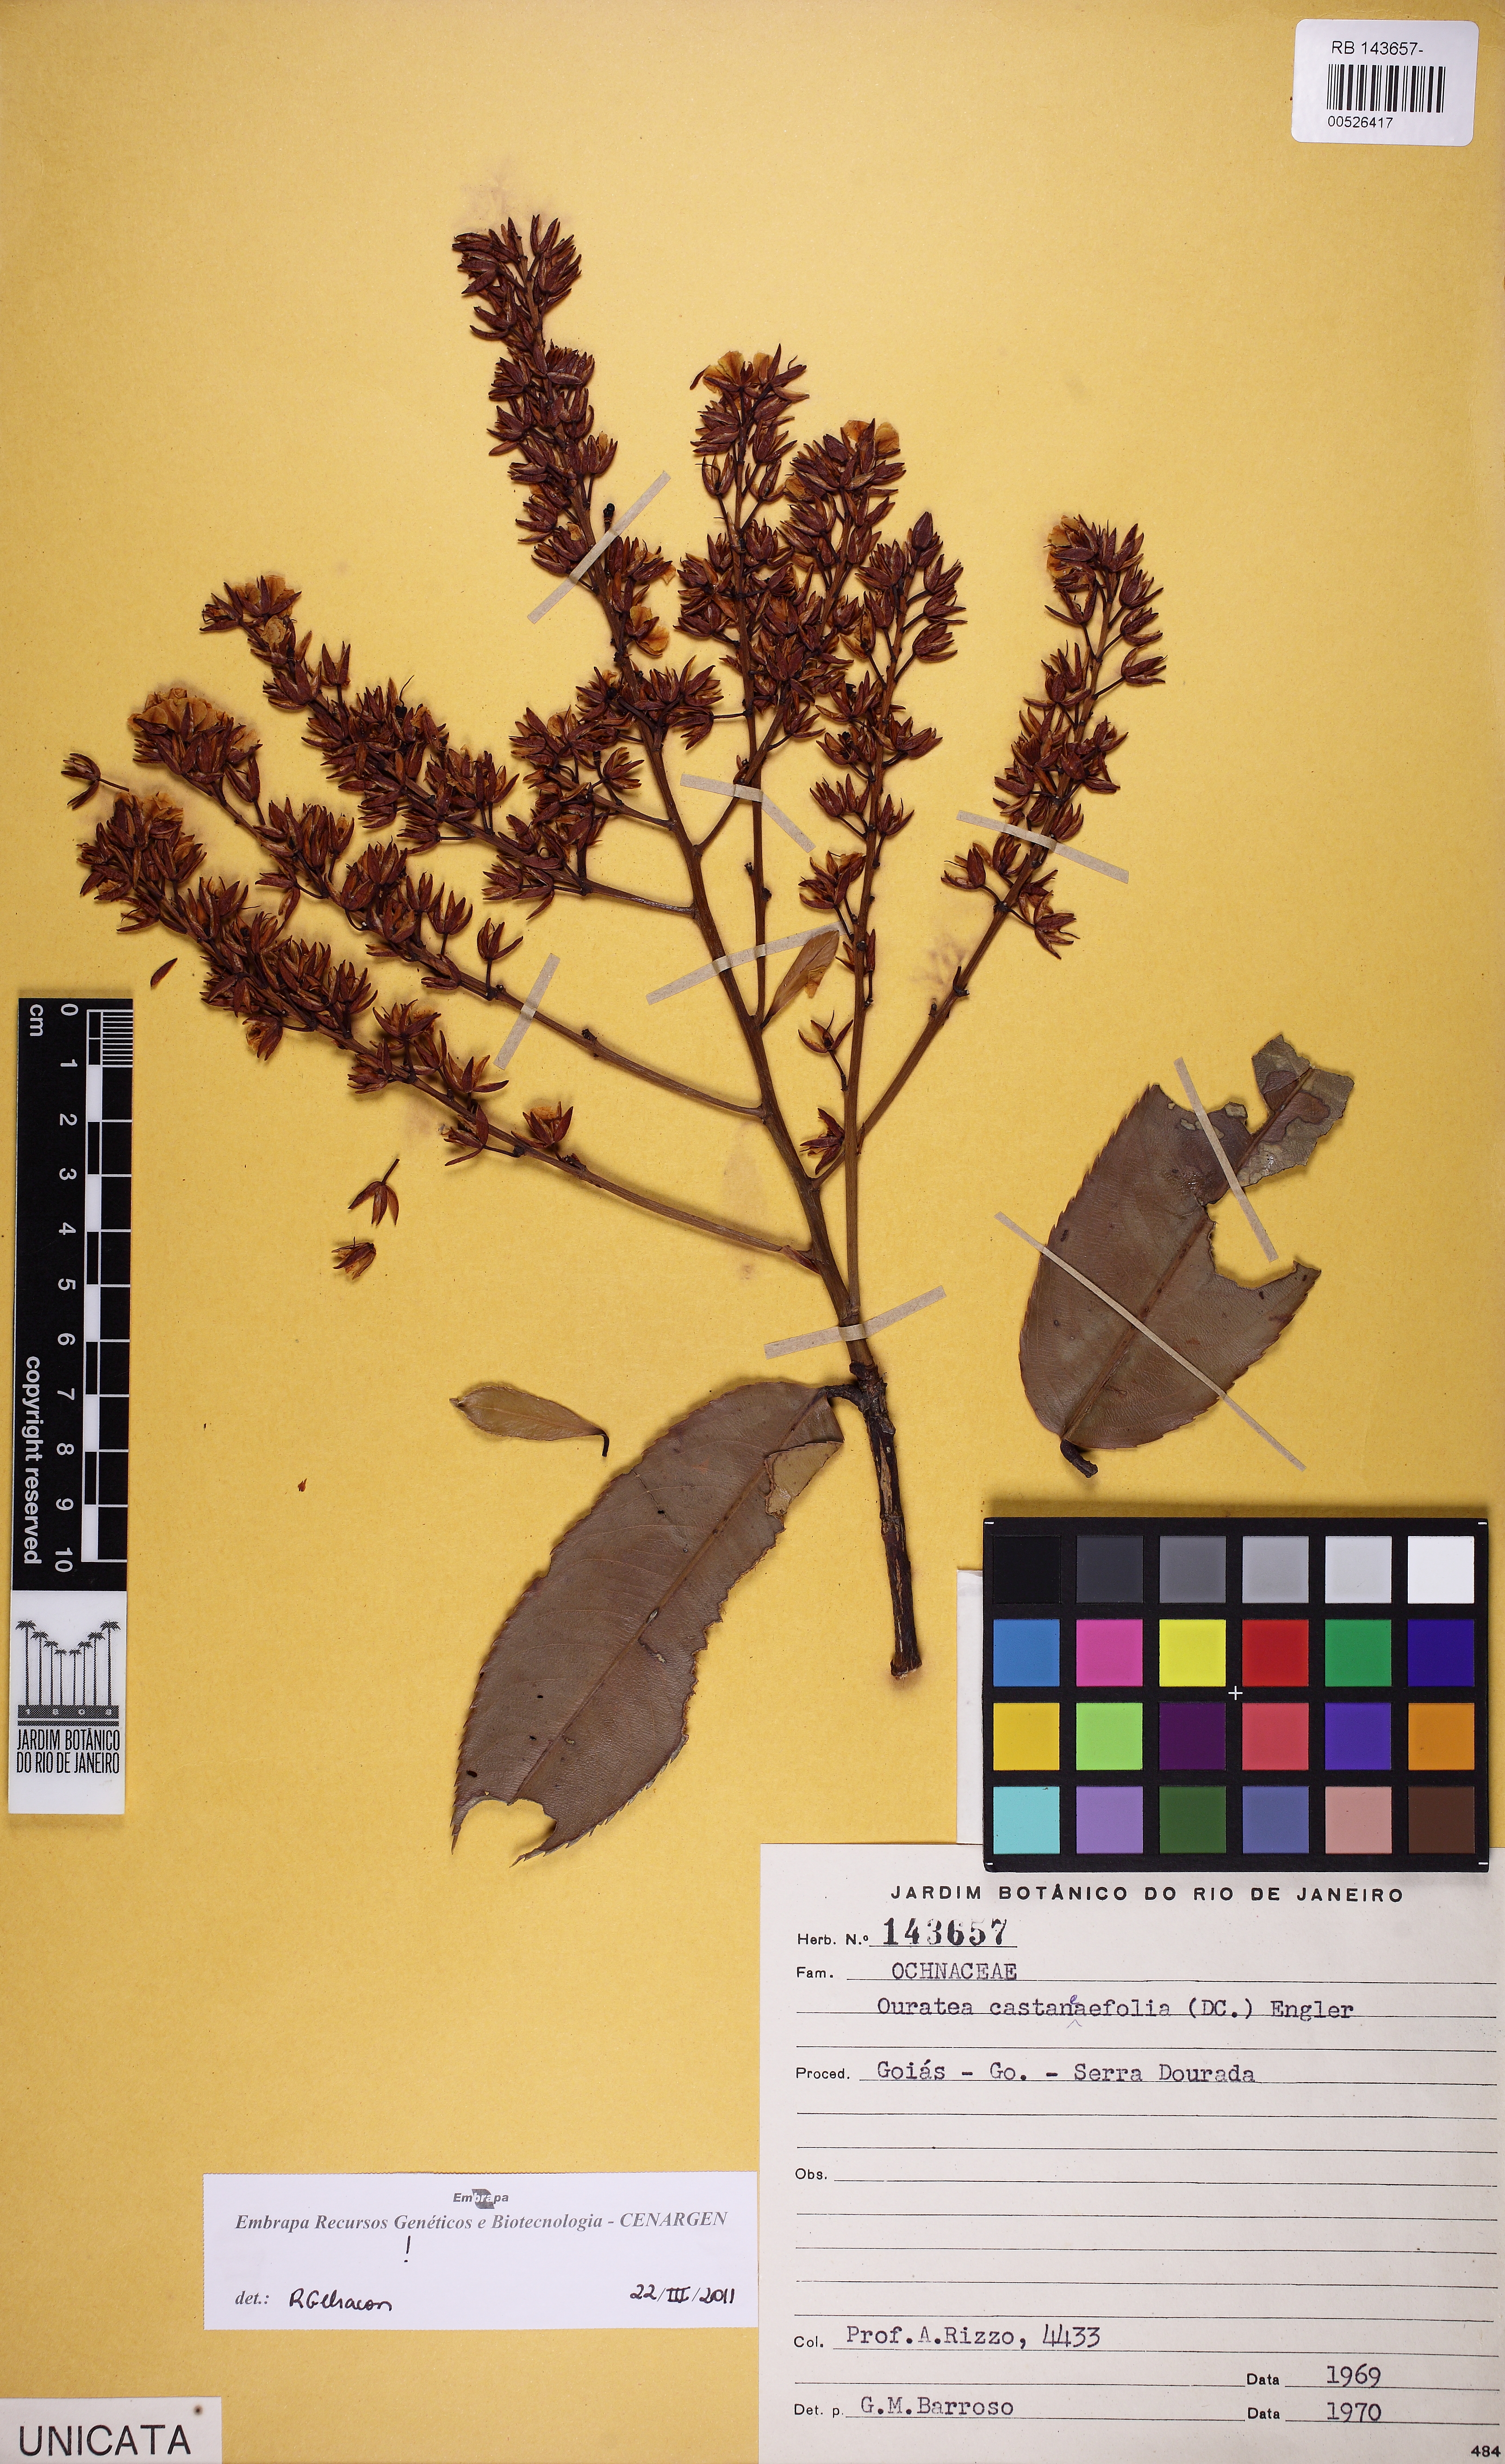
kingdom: Plantae
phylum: Tracheophyta
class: Magnoliopsida
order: Malpighiales
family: Ochnaceae
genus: Ouratea
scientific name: Ouratea castaneifolia
